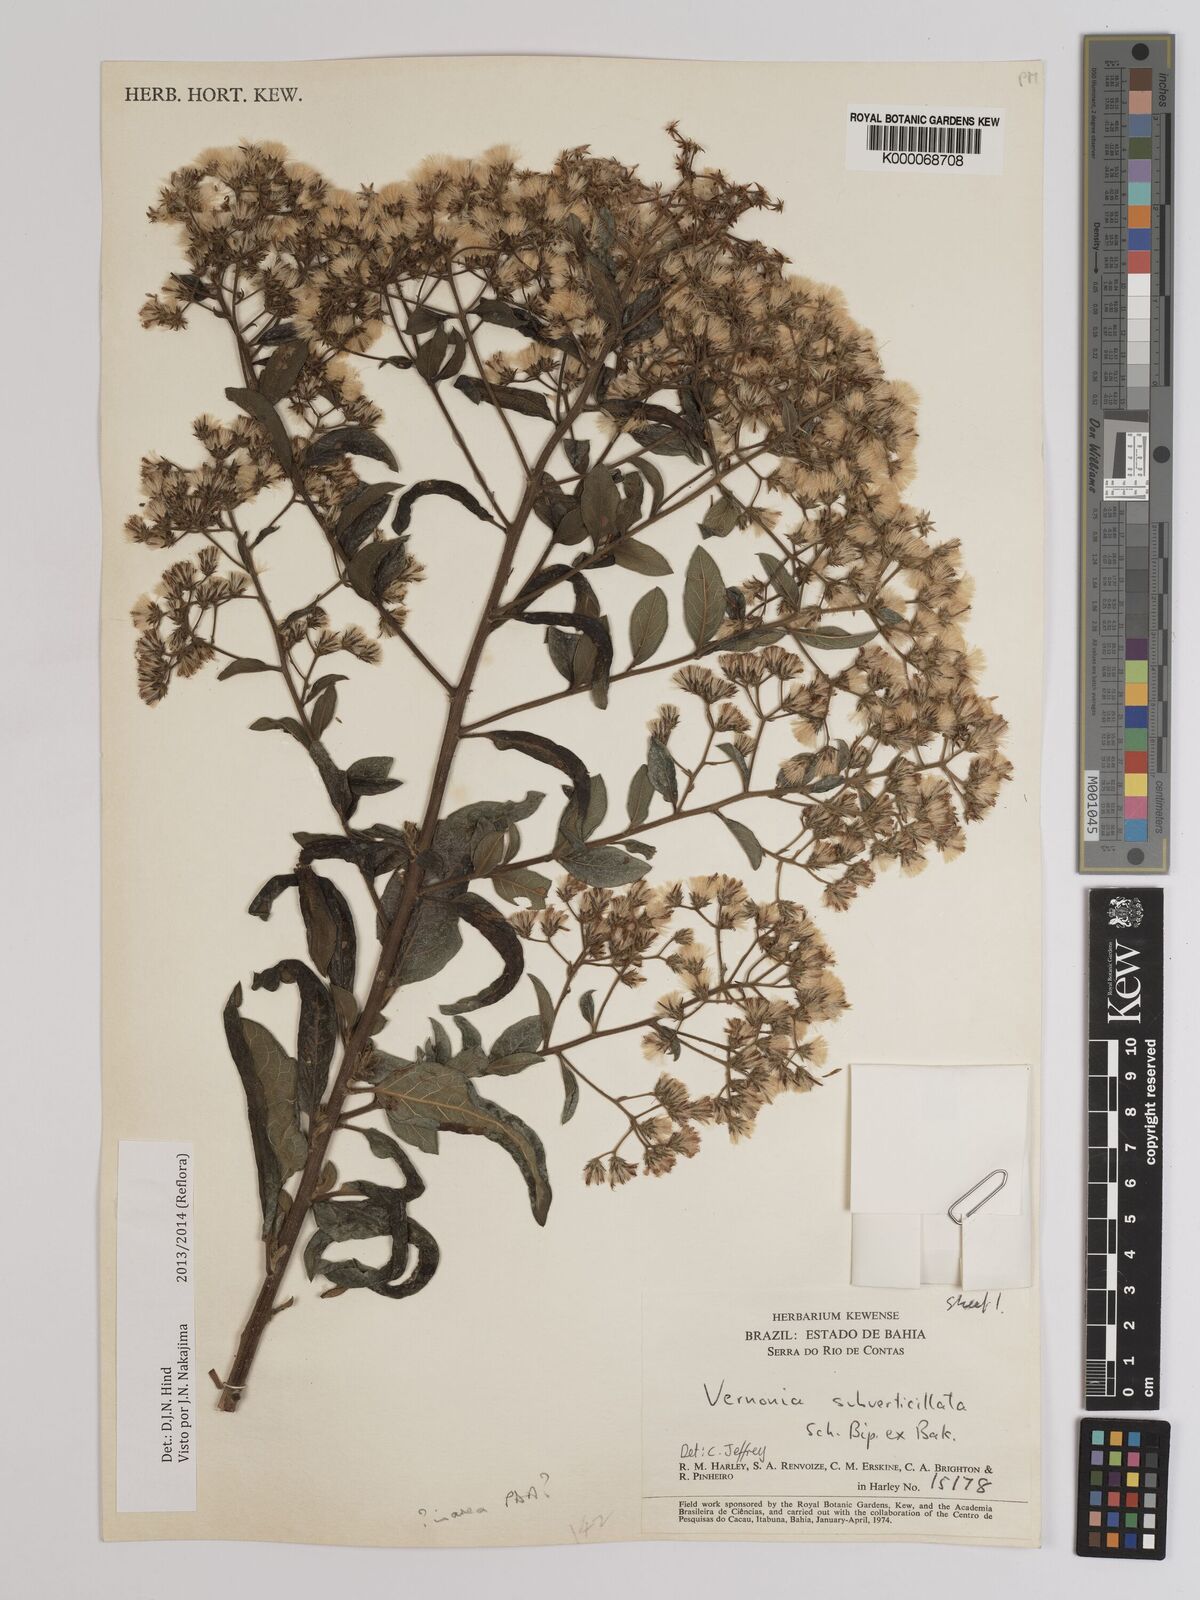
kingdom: Plantae
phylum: Tracheophyta
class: Magnoliopsida
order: Asterales
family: Asteraceae
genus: Vernonia
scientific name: Vernonia
